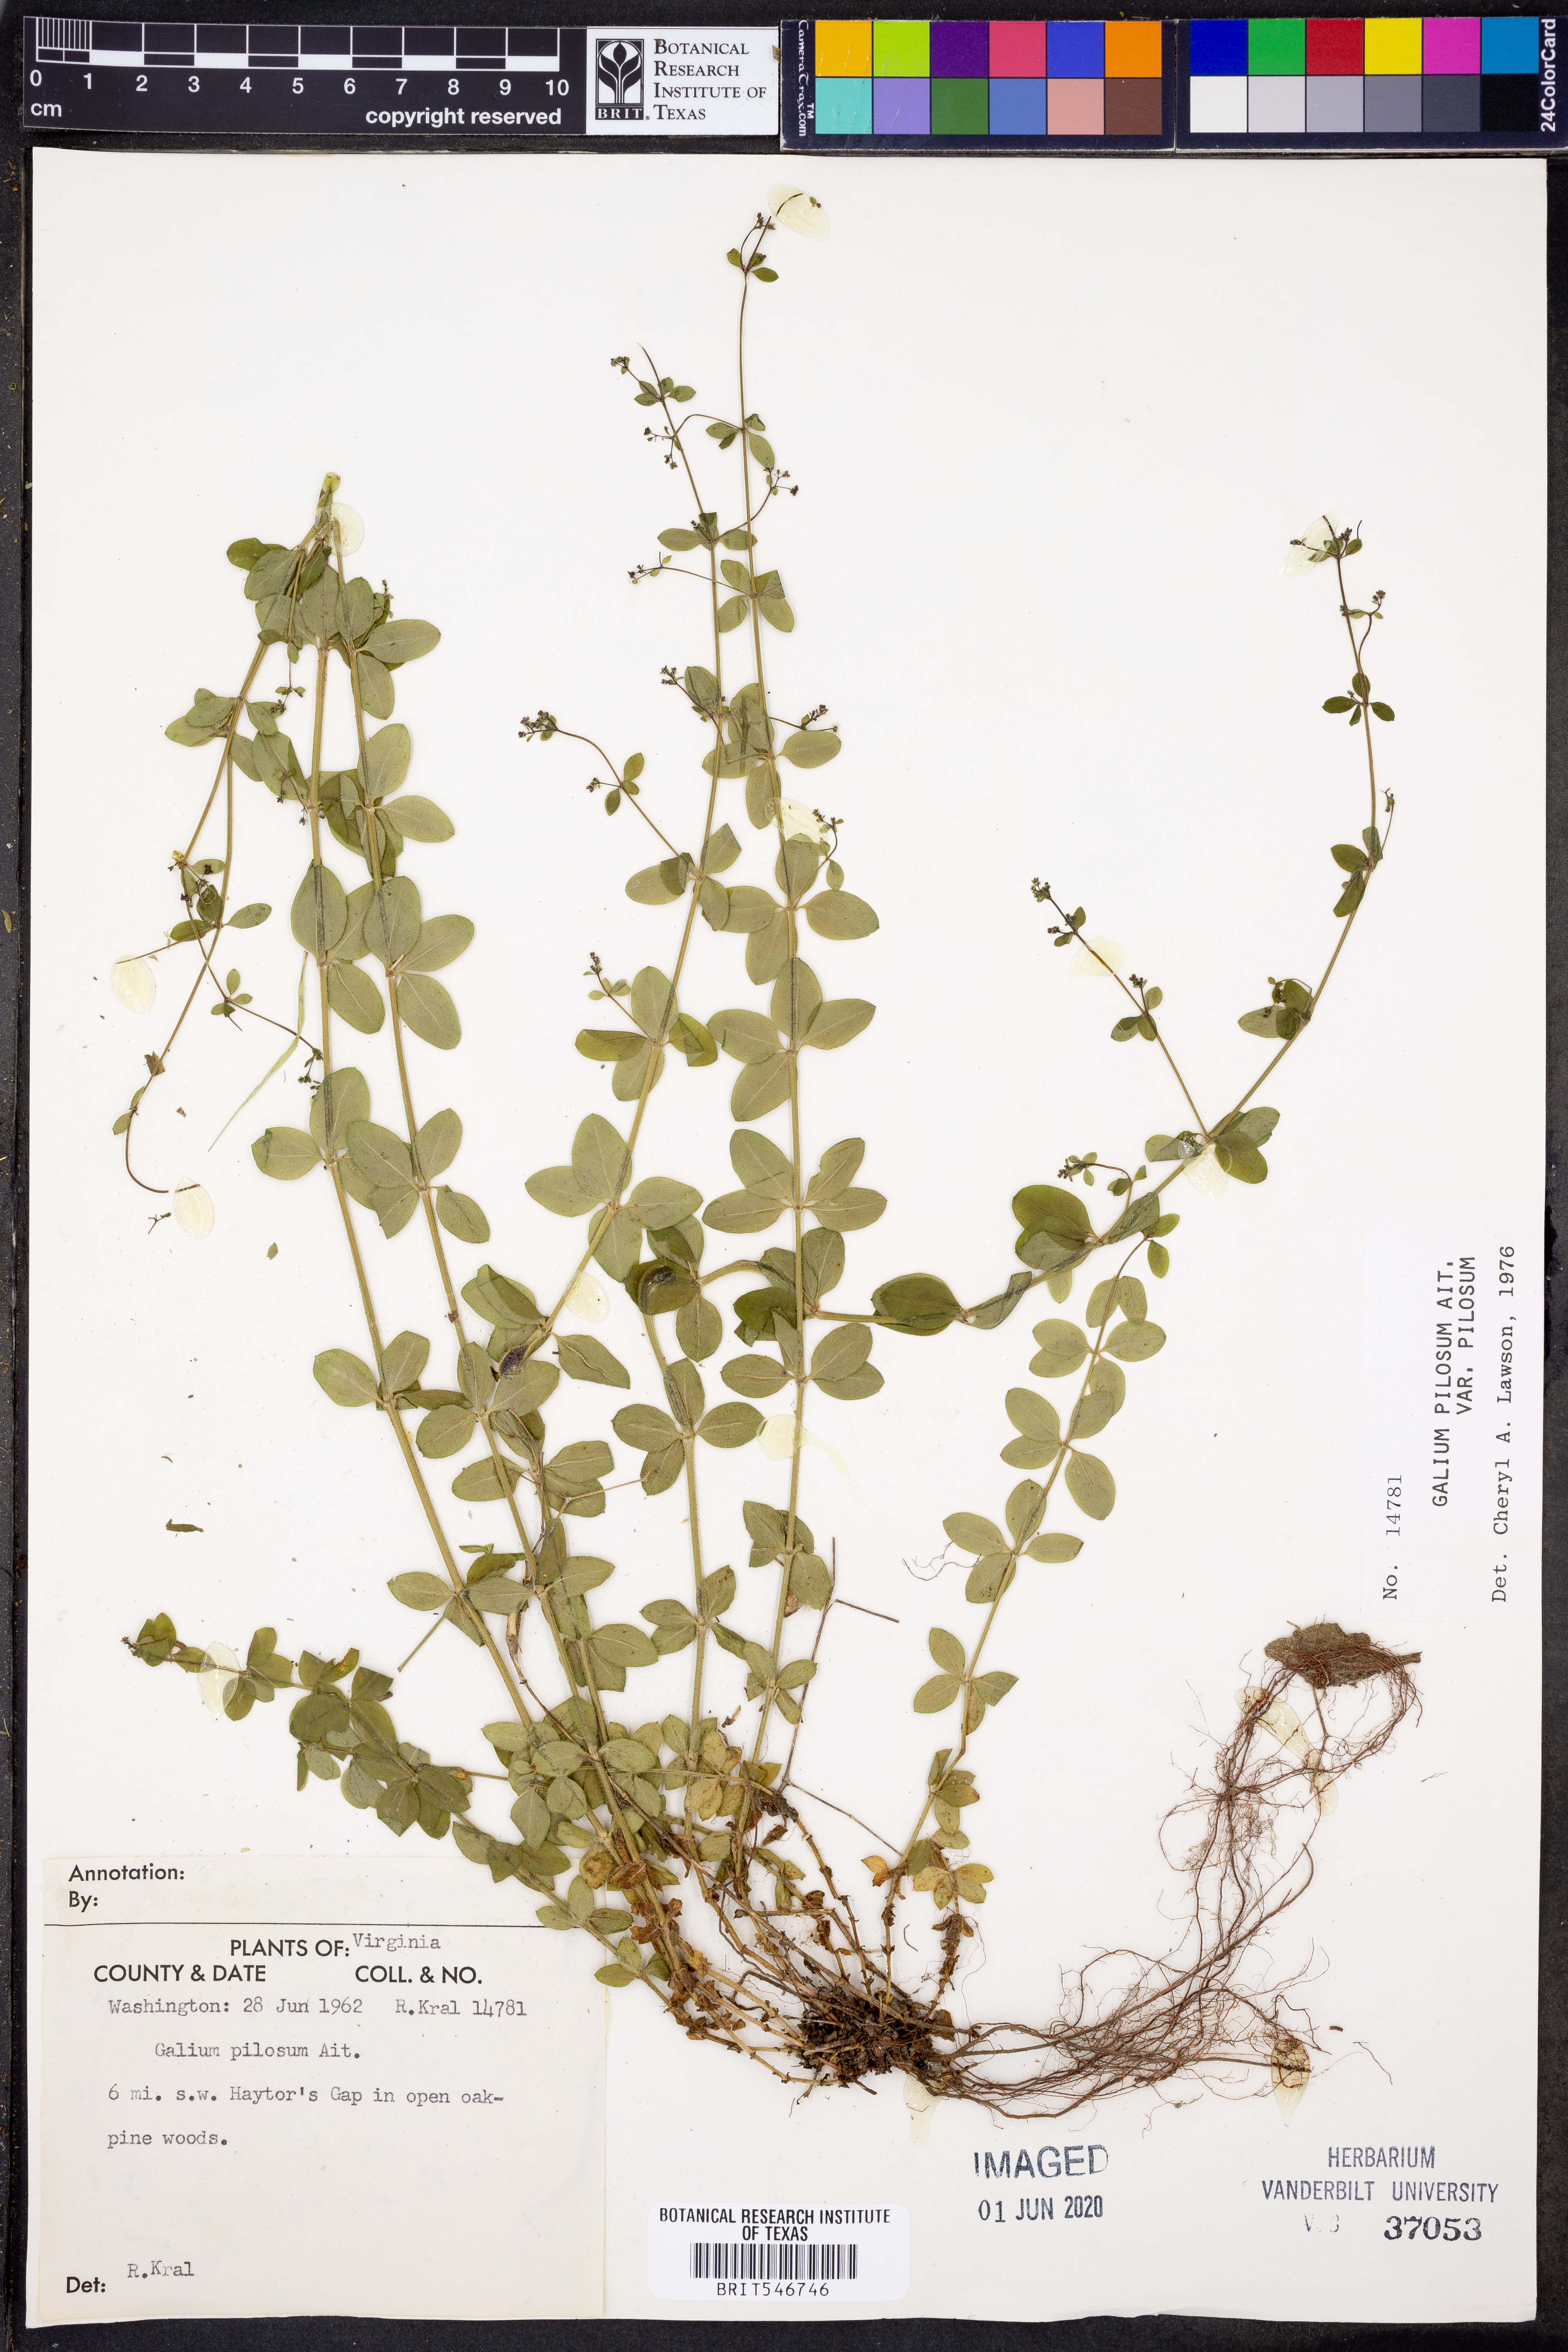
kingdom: Plantae
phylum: Tracheophyta
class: Magnoliopsida
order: Gentianales
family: Rubiaceae
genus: Galium
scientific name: Galium pilosum
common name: Hairy bedstraw
